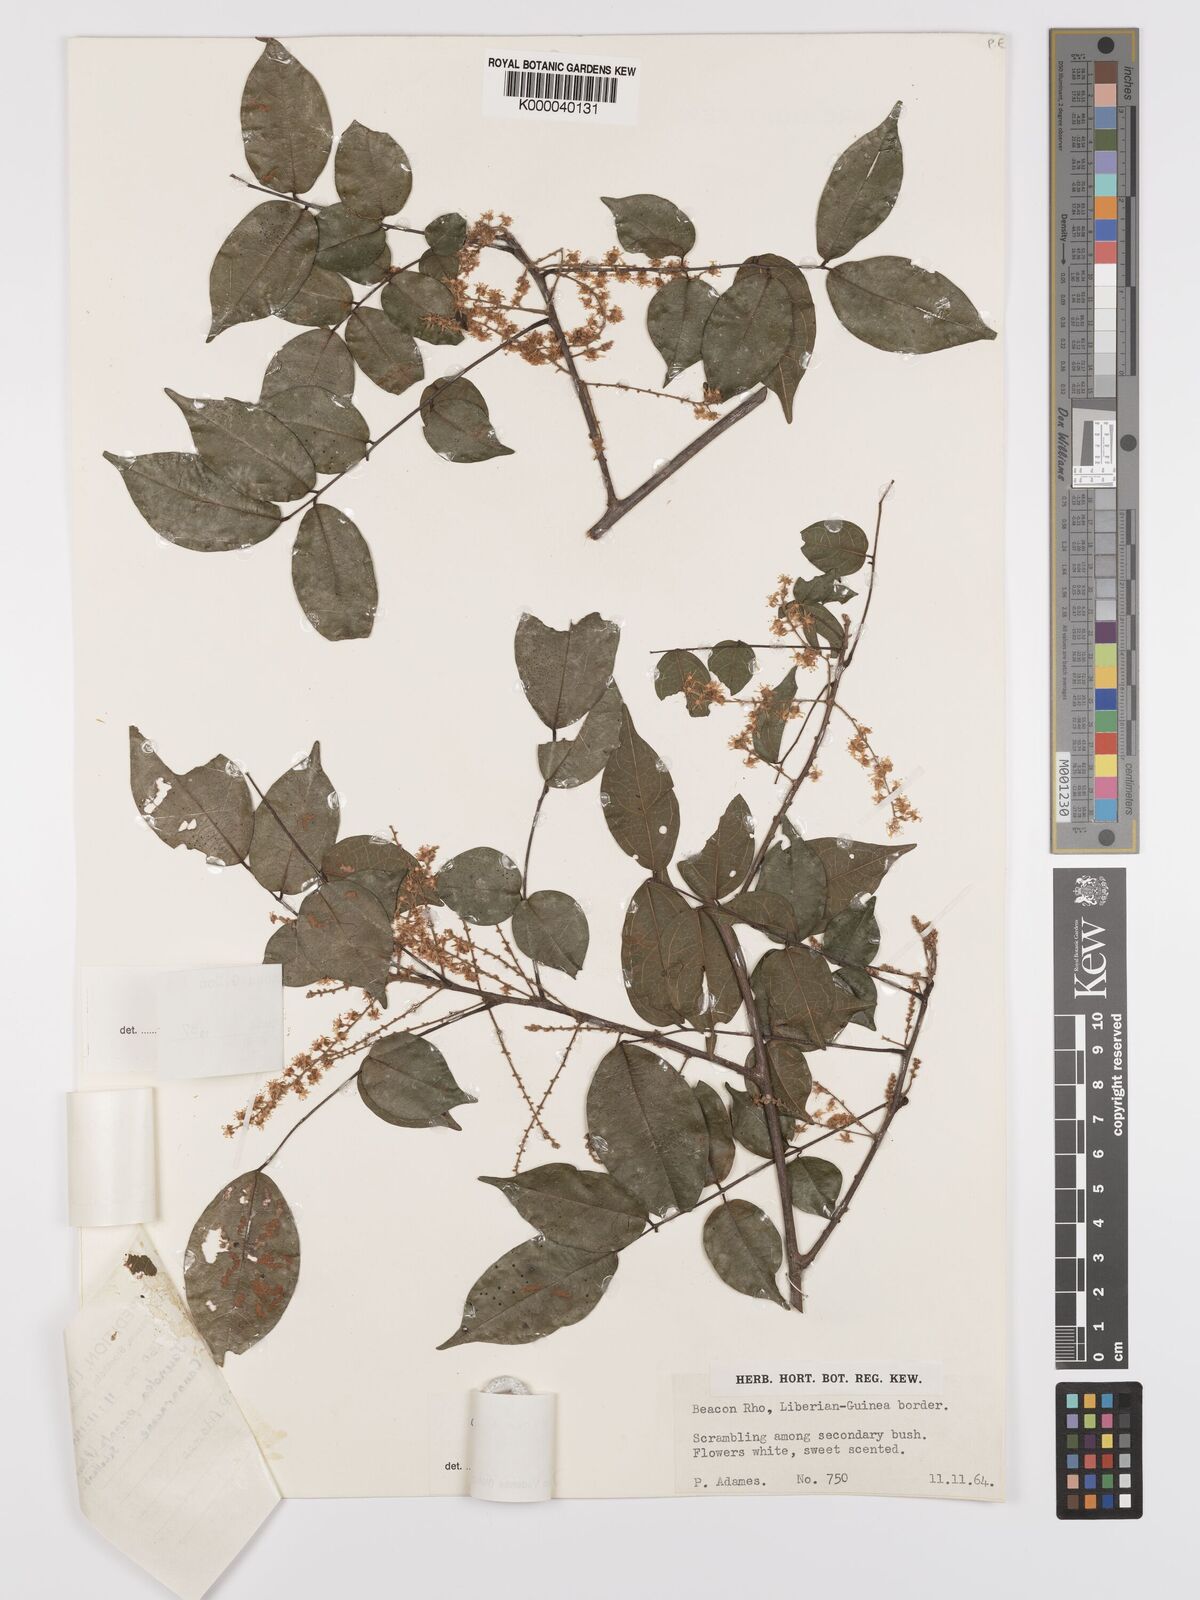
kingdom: Plantae
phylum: Tracheophyta
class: Magnoliopsida
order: Oxalidales
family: Connaraceae
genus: Cnestis
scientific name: Cnestis racemosa
